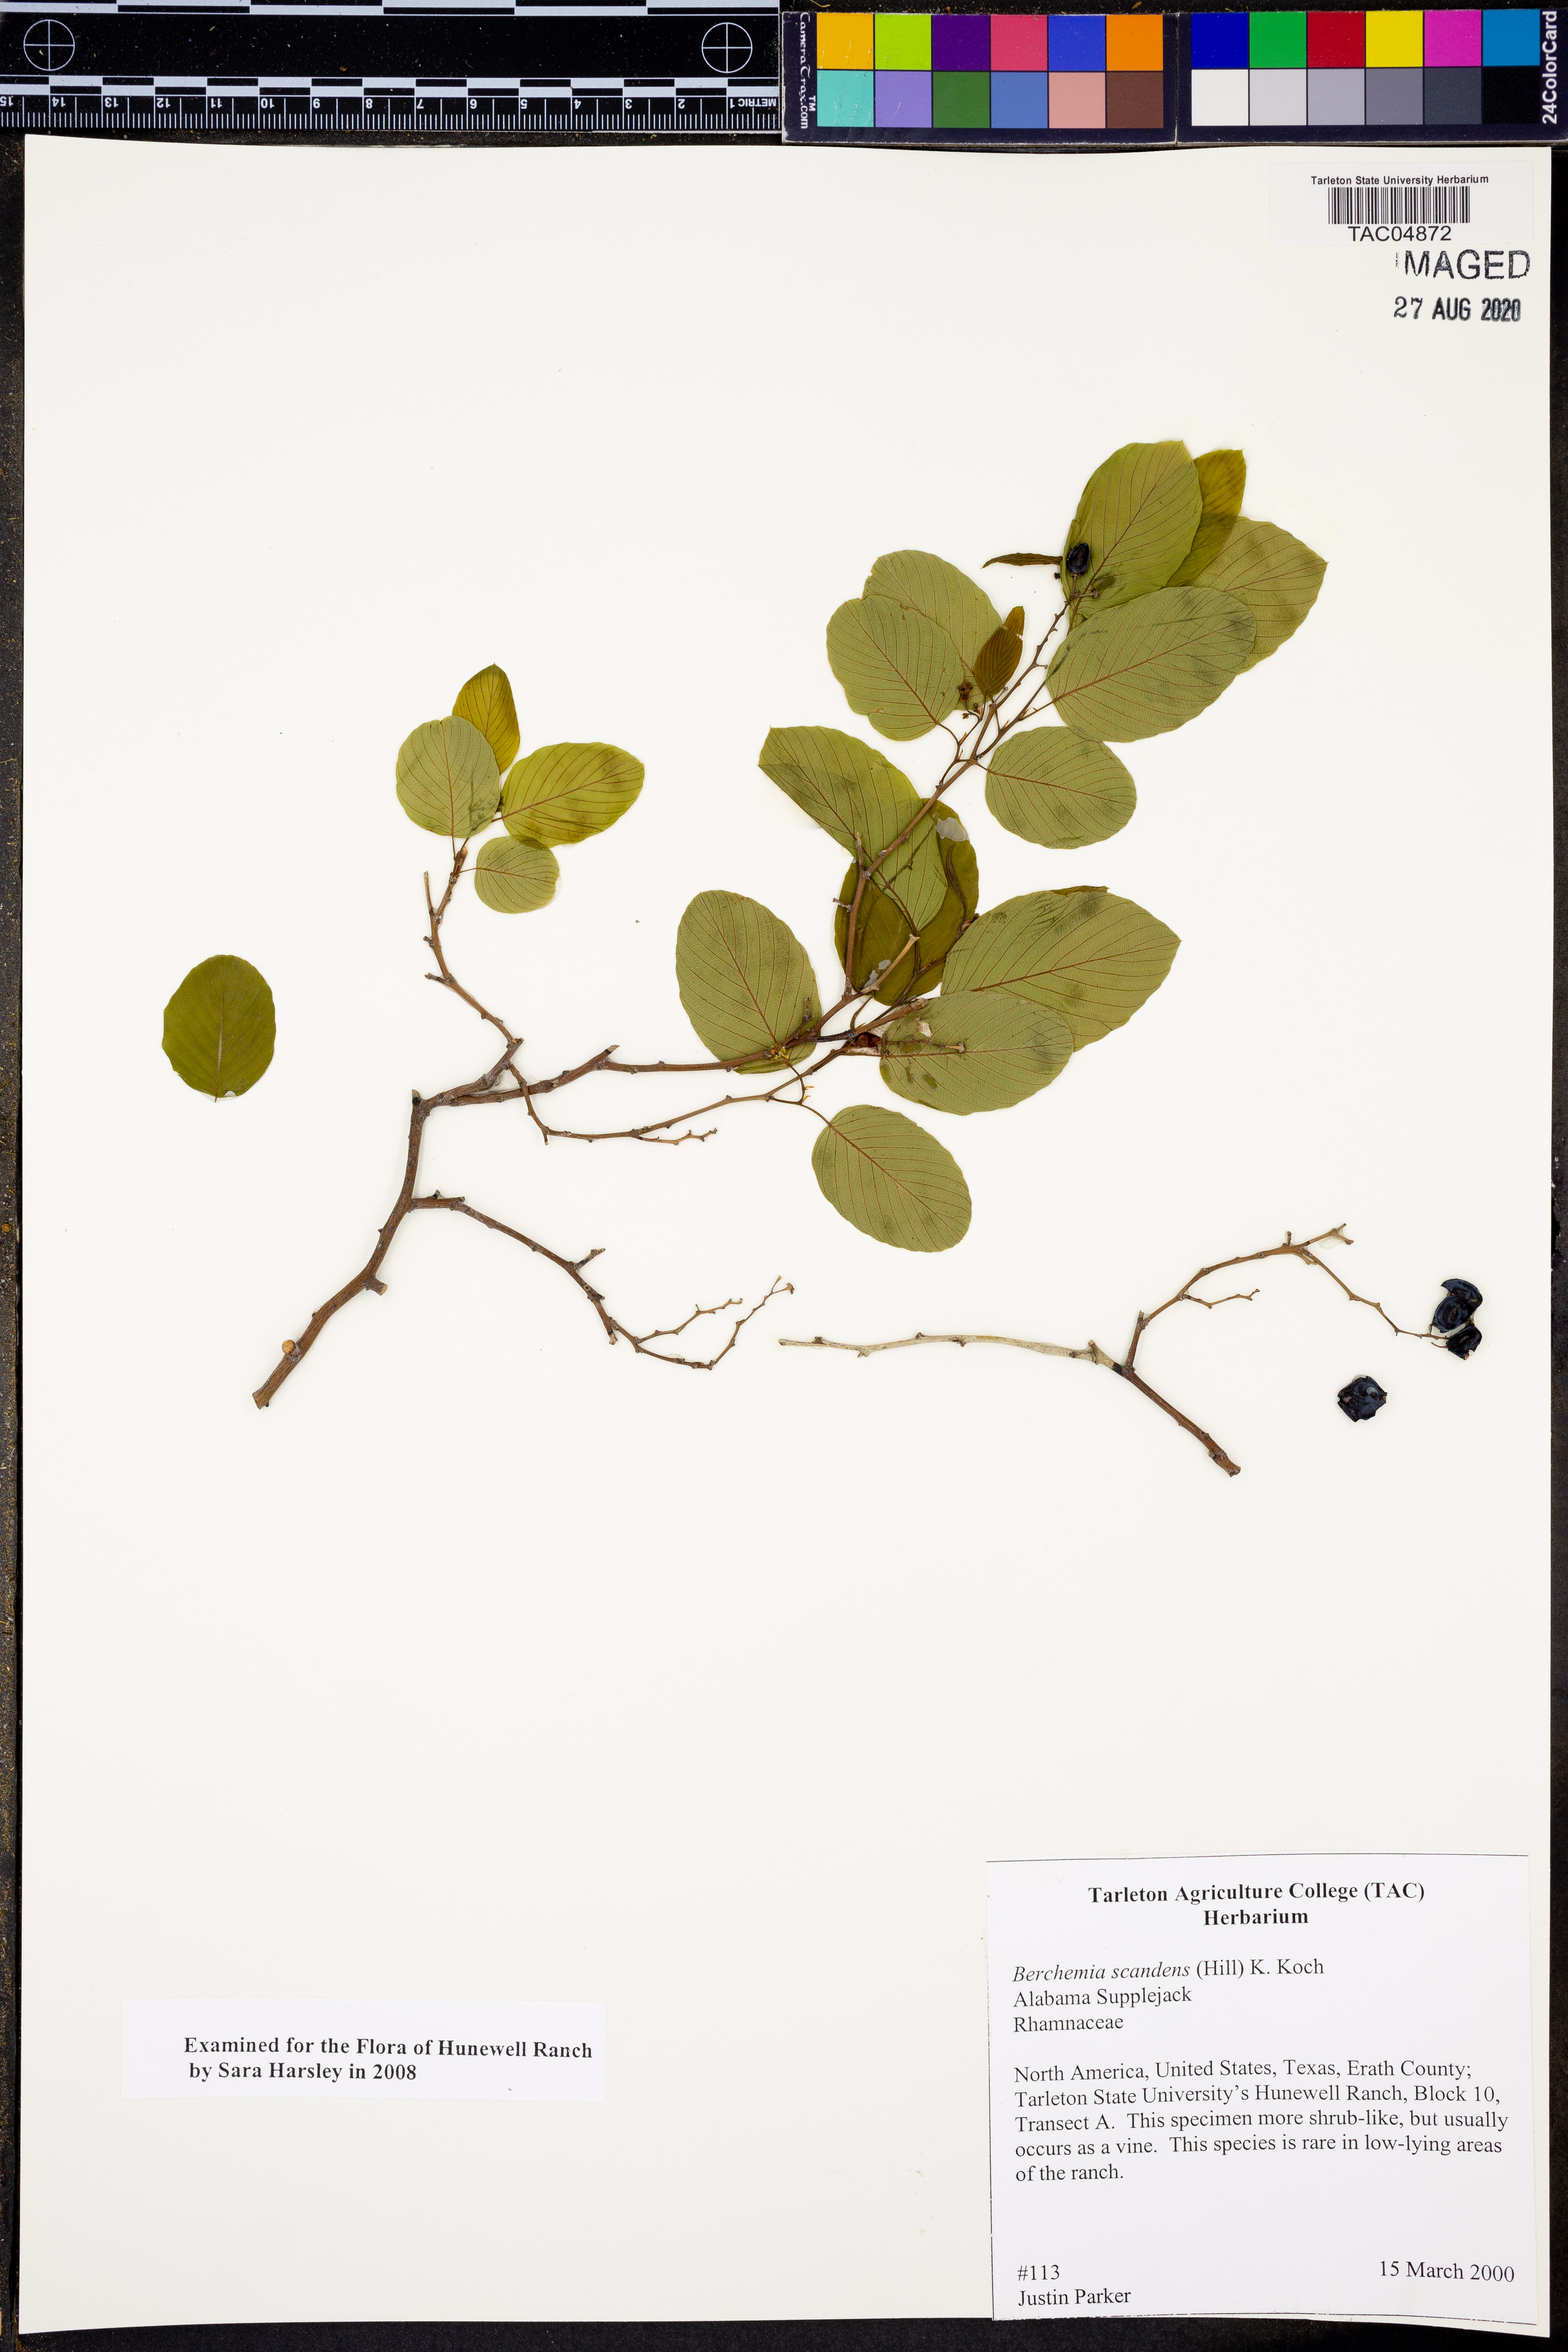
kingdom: Plantae
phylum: Tracheophyta
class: Magnoliopsida
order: Rosales
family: Rhamnaceae
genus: Berchemia
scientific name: Berchemia scandens
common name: Supplejack
